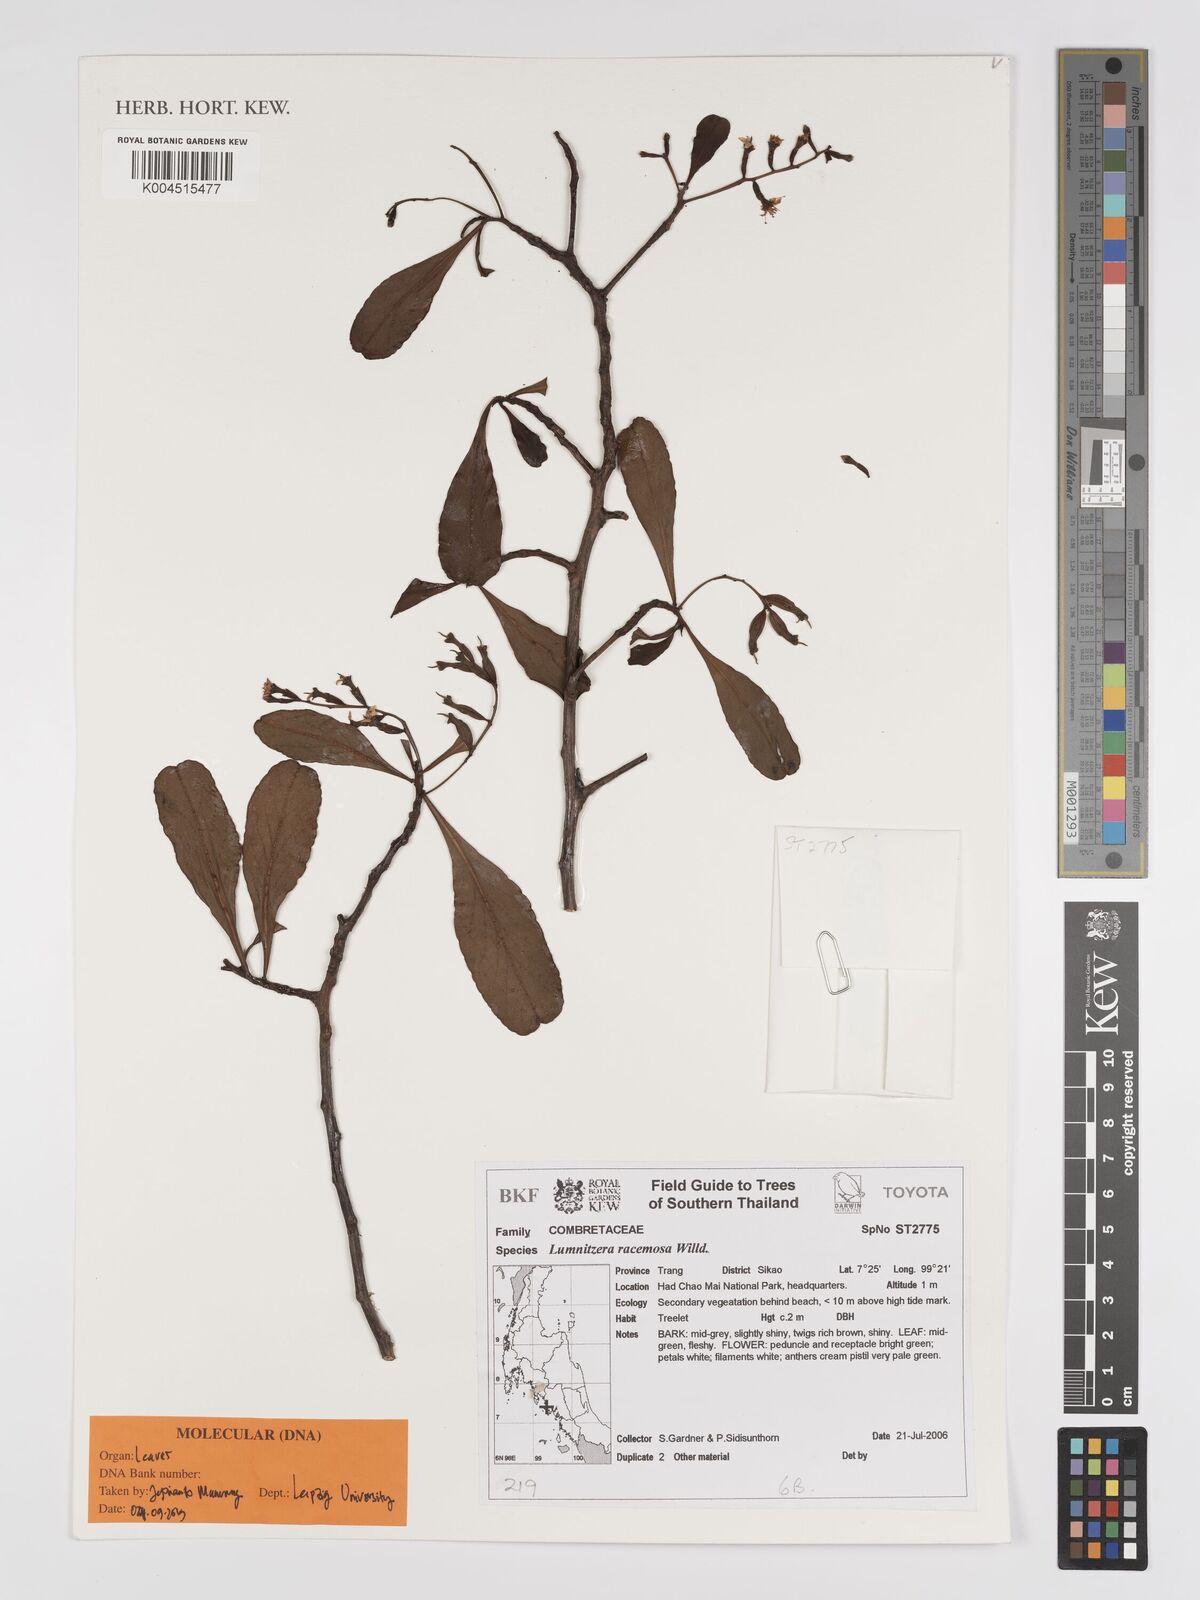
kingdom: Plantae
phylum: Tracheophyta
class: Magnoliopsida
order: Myrtales
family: Combretaceae
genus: Lumnitzera
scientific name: Lumnitzera racemosa
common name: White-flowered black mangrove
